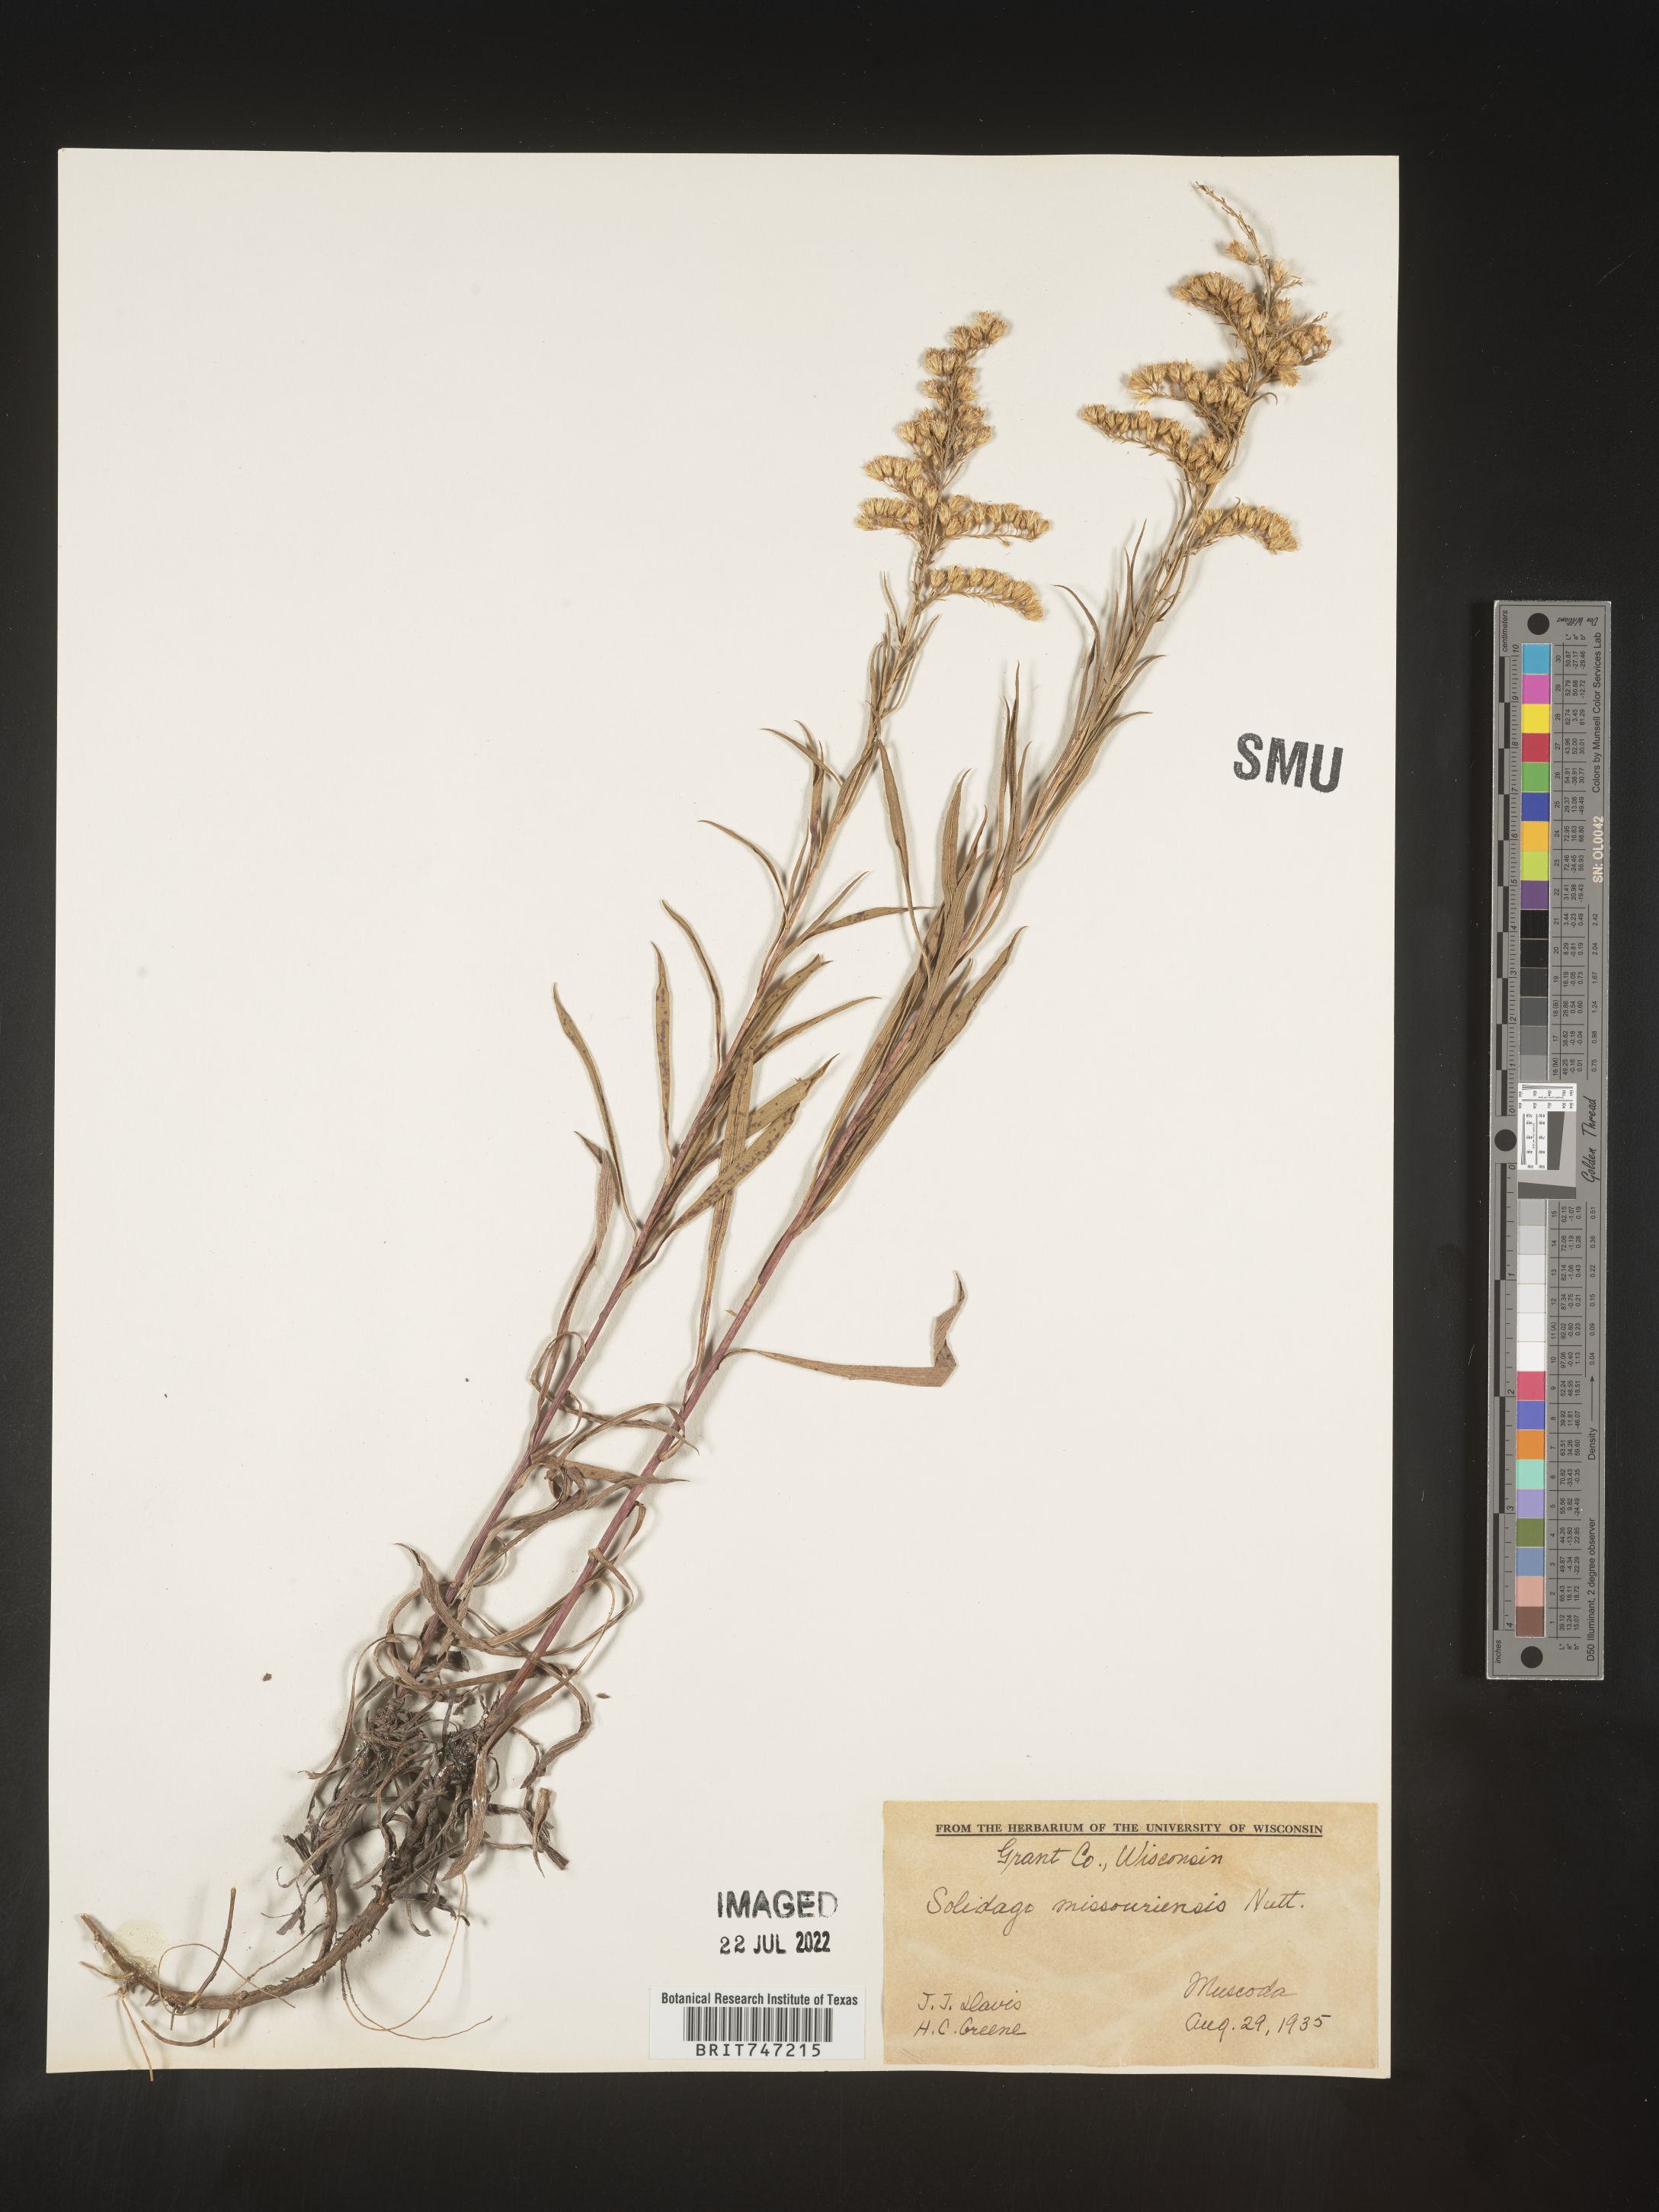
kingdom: Plantae
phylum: Tracheophyta
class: Magnoliopsida
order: Asterales
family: Asteraceae
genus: Solidago
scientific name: Solidago missouriensis
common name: Prairie goldenrod
